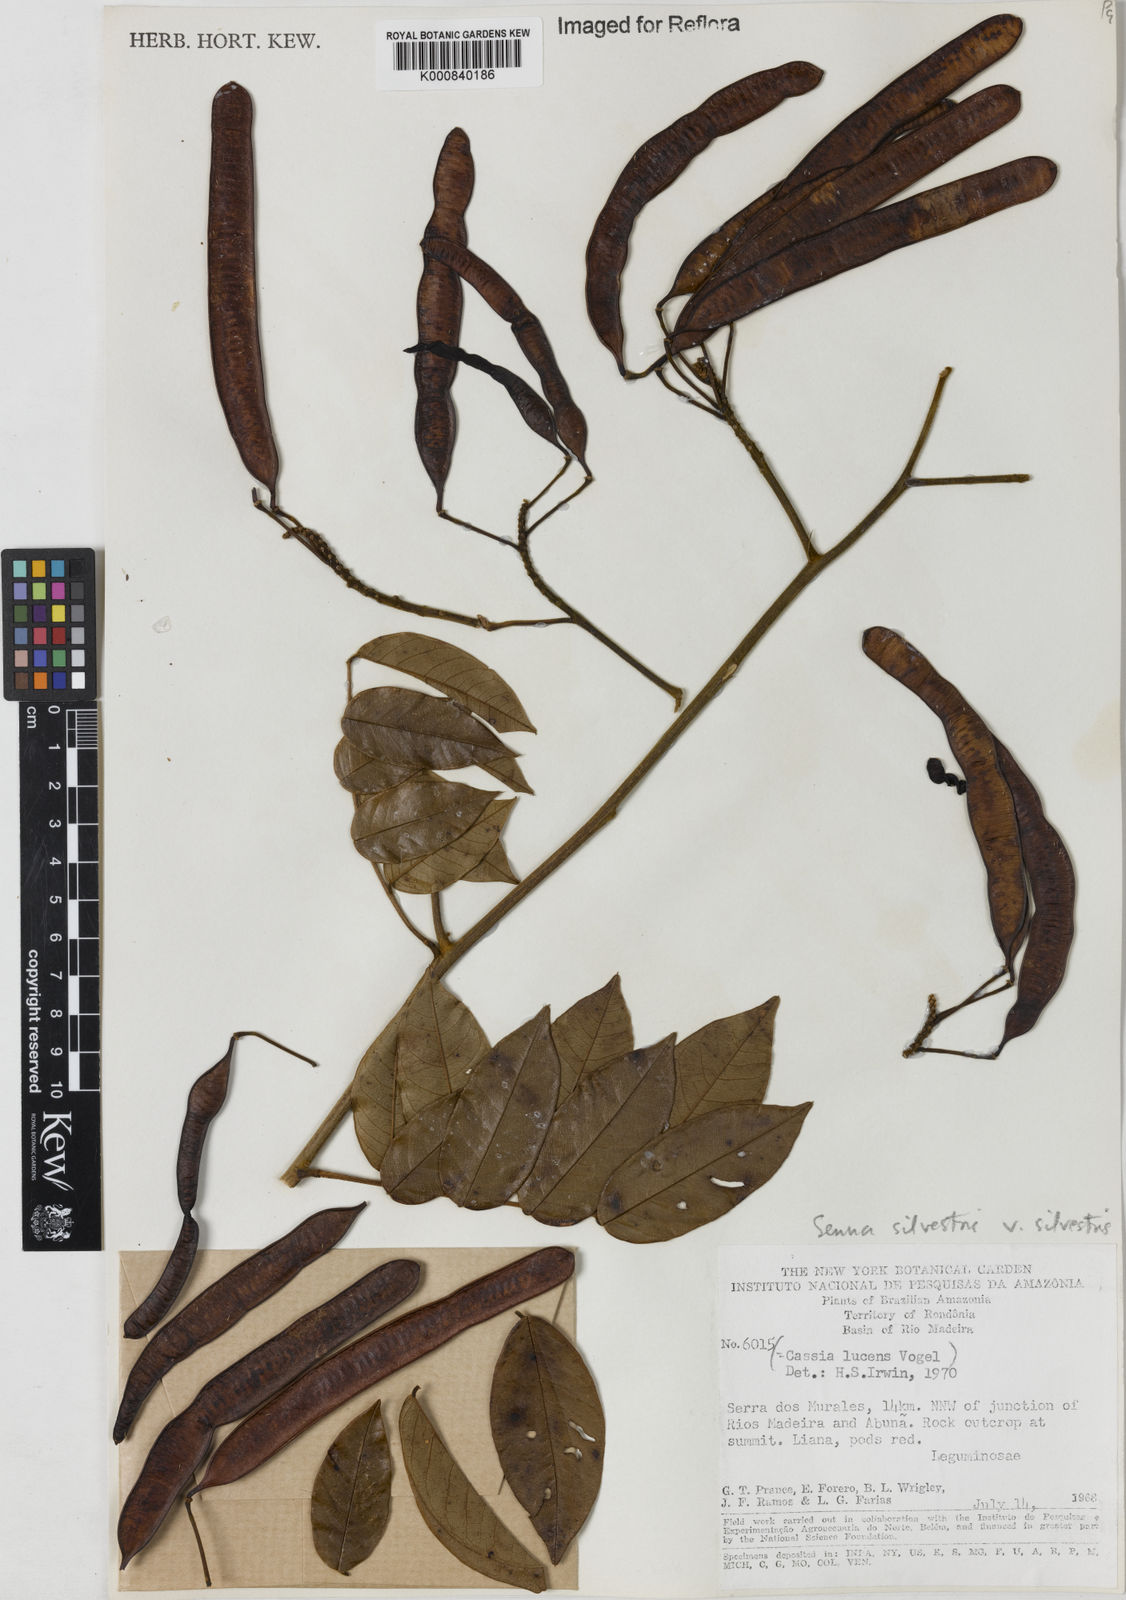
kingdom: Plantae
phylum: Tracheophyta
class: Magnoliopsida
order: Fabales
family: Fabaceae
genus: Senna
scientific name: Senna silvestris
